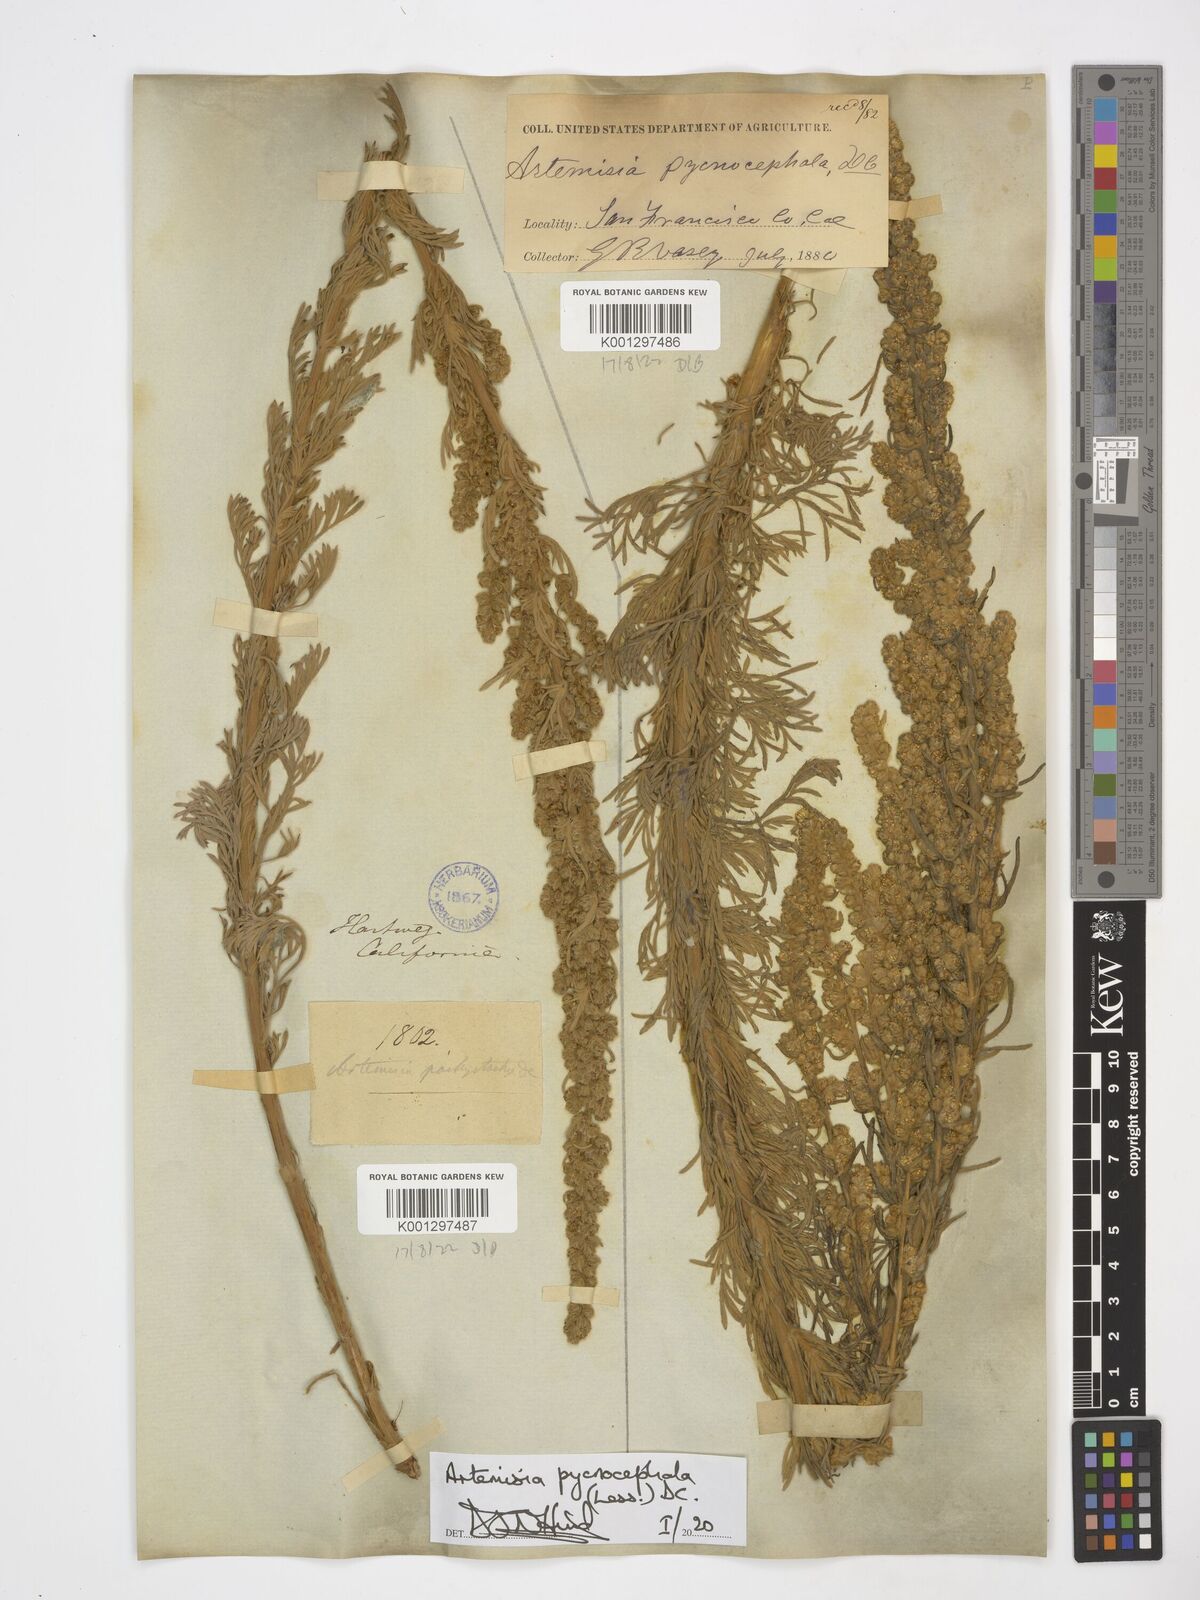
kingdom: Plantae
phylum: Tracheophyta
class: Magnoliopsida
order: Asterales
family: Asteraceae
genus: Artemisia
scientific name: Artemisia pycnocephala
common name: Coastal sagewort
